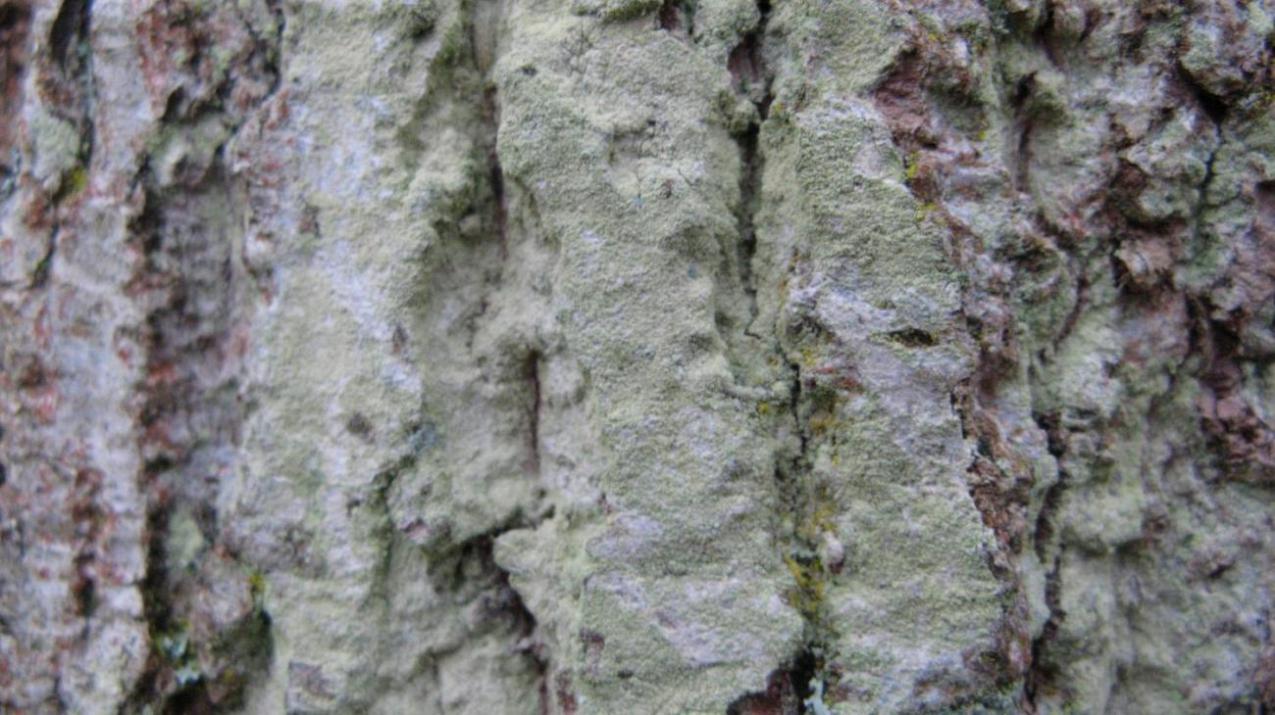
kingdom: Fungi
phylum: Ascomycota
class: Lecanoromycetes
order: Lecanorales
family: Lecanoraceae
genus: Lecanora
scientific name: Lecanora expallens
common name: bleggul kantskivelav
